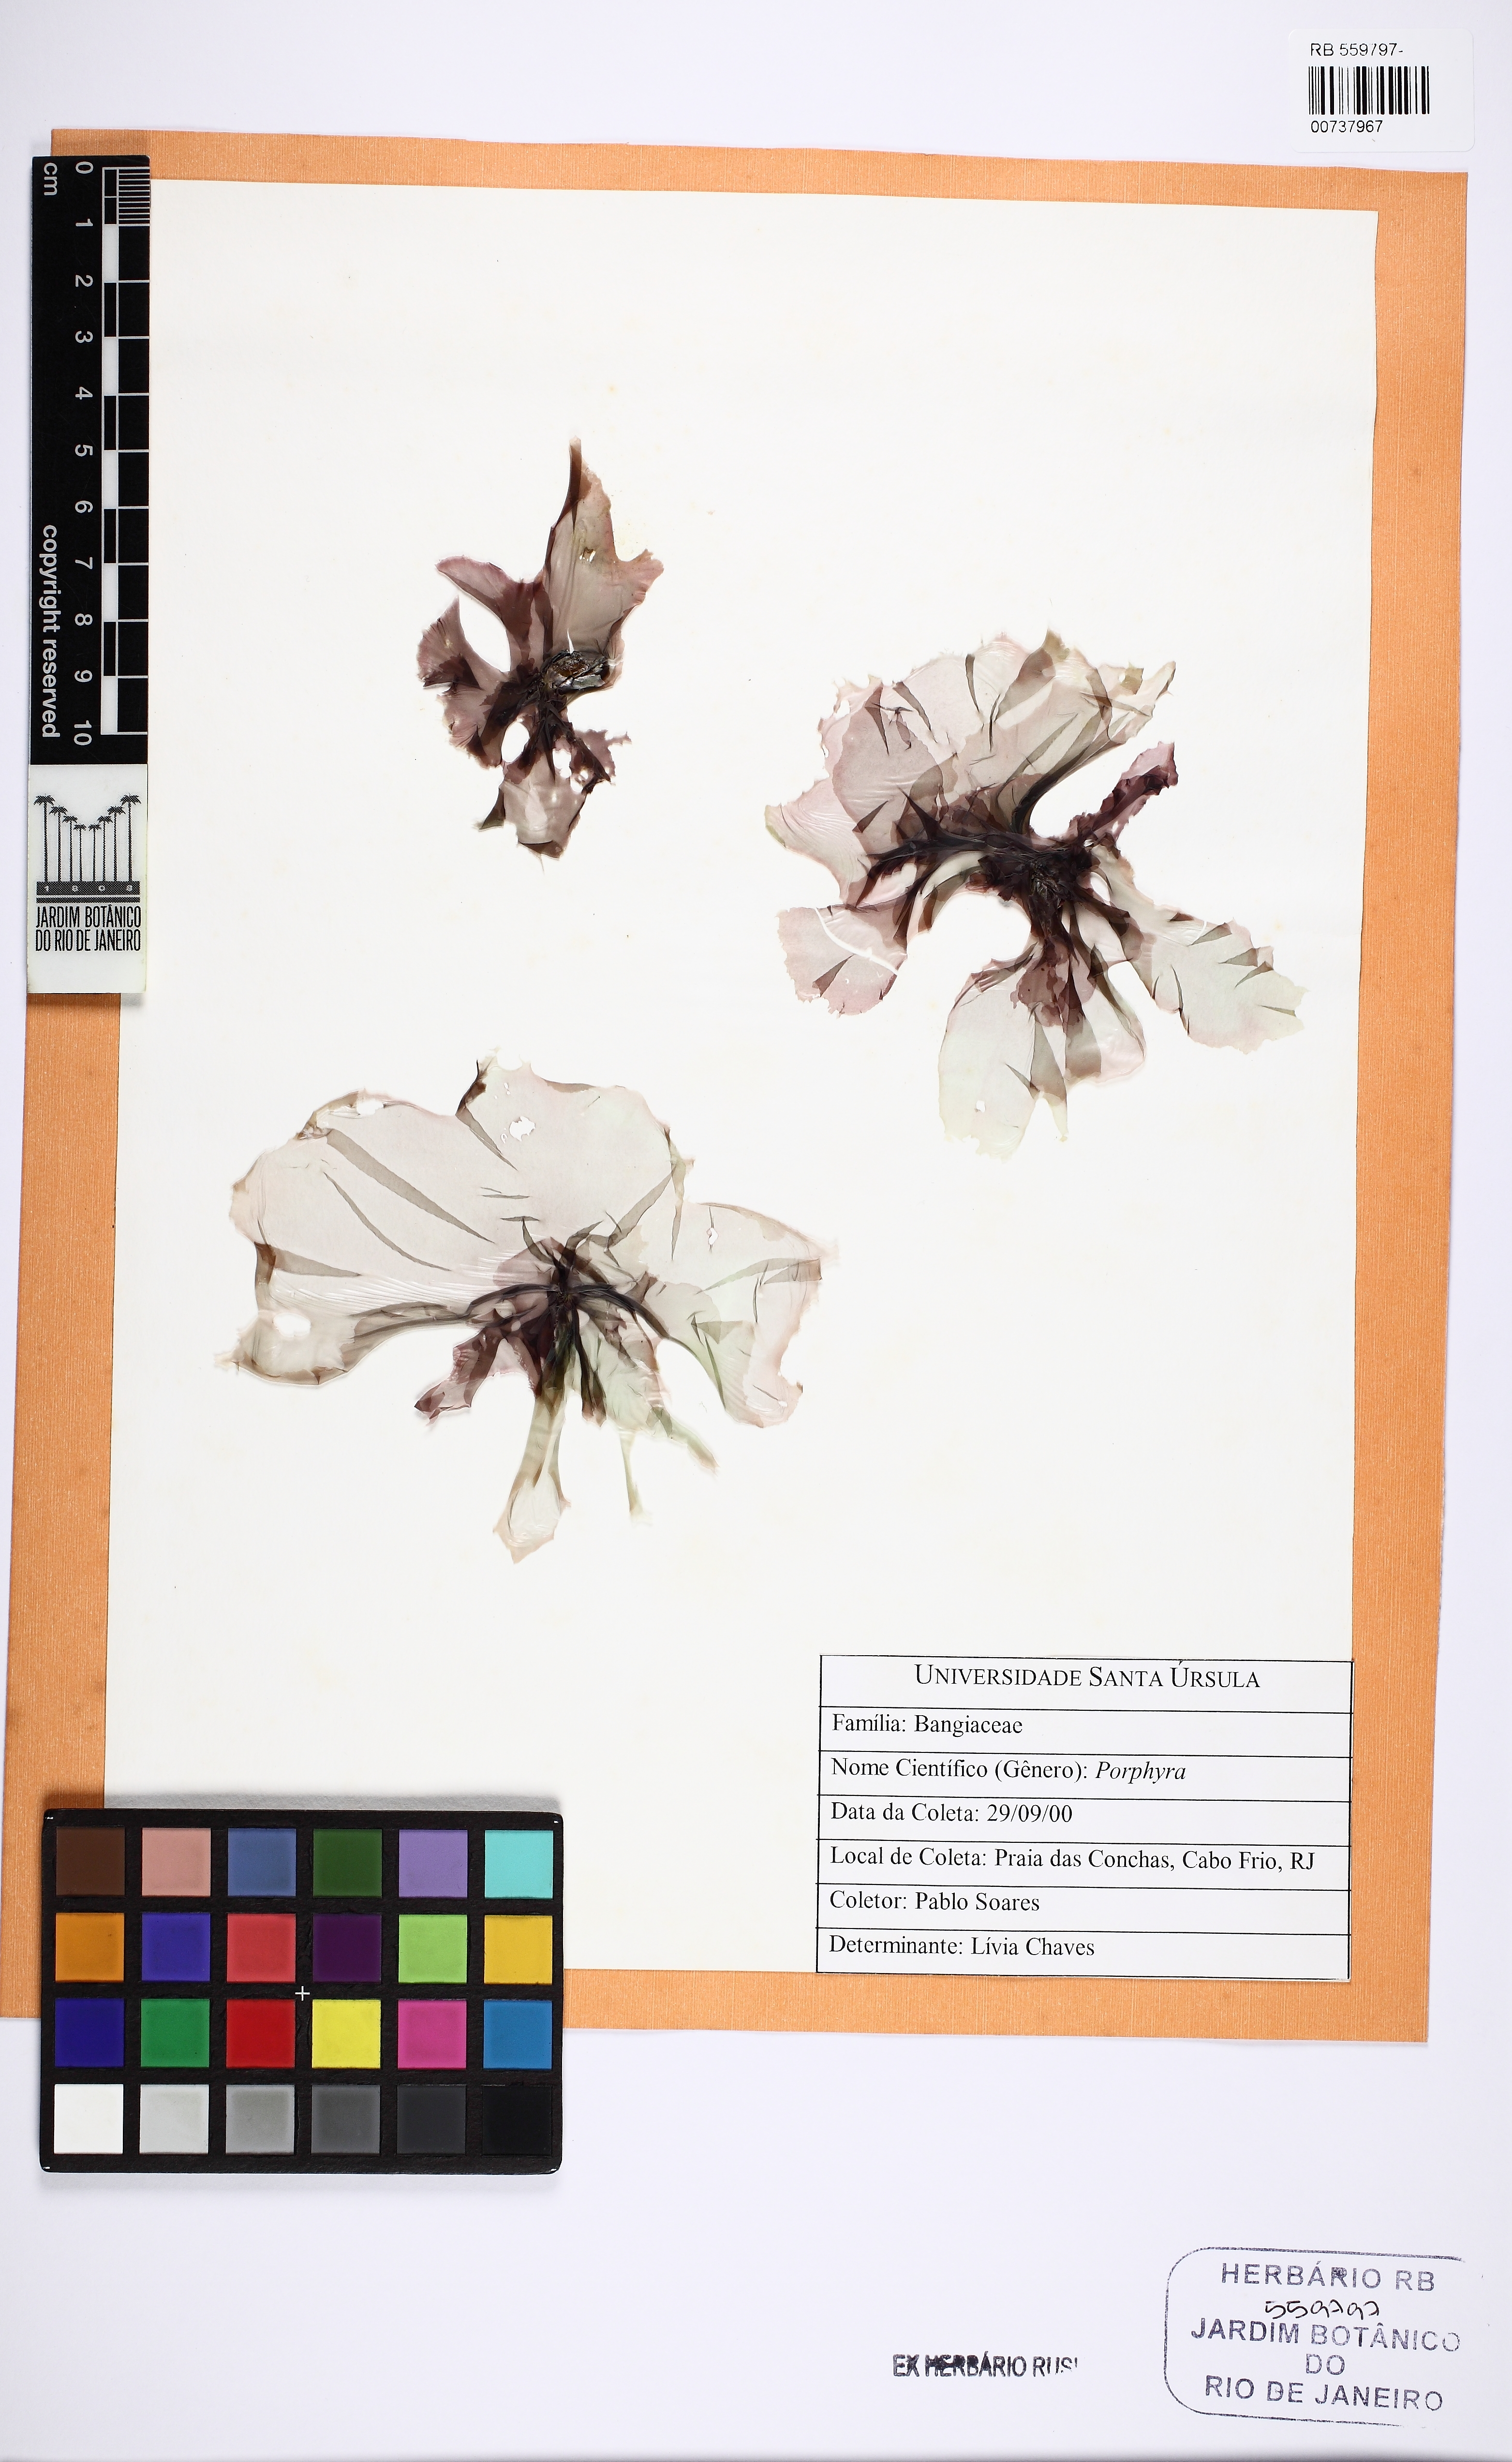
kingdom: Plantae
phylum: Rhodophyta
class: Bangiophyceae
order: Bangiales
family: Bangiaceae
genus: Porphyra
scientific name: Porphyra
